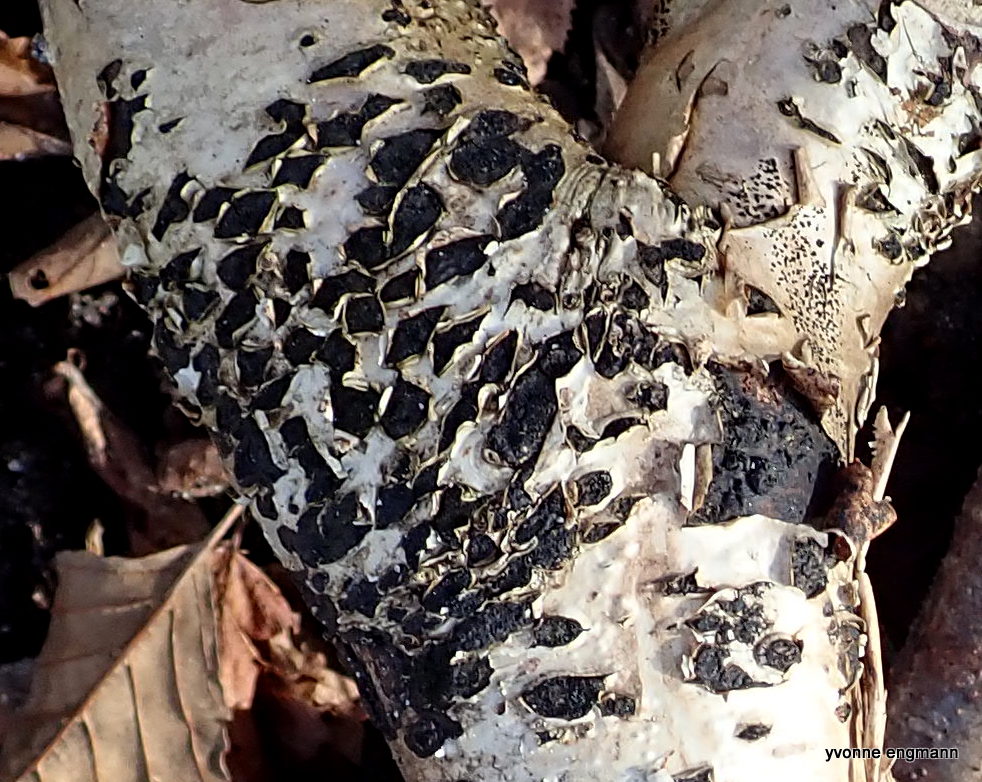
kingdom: Fungi
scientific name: Fungi
